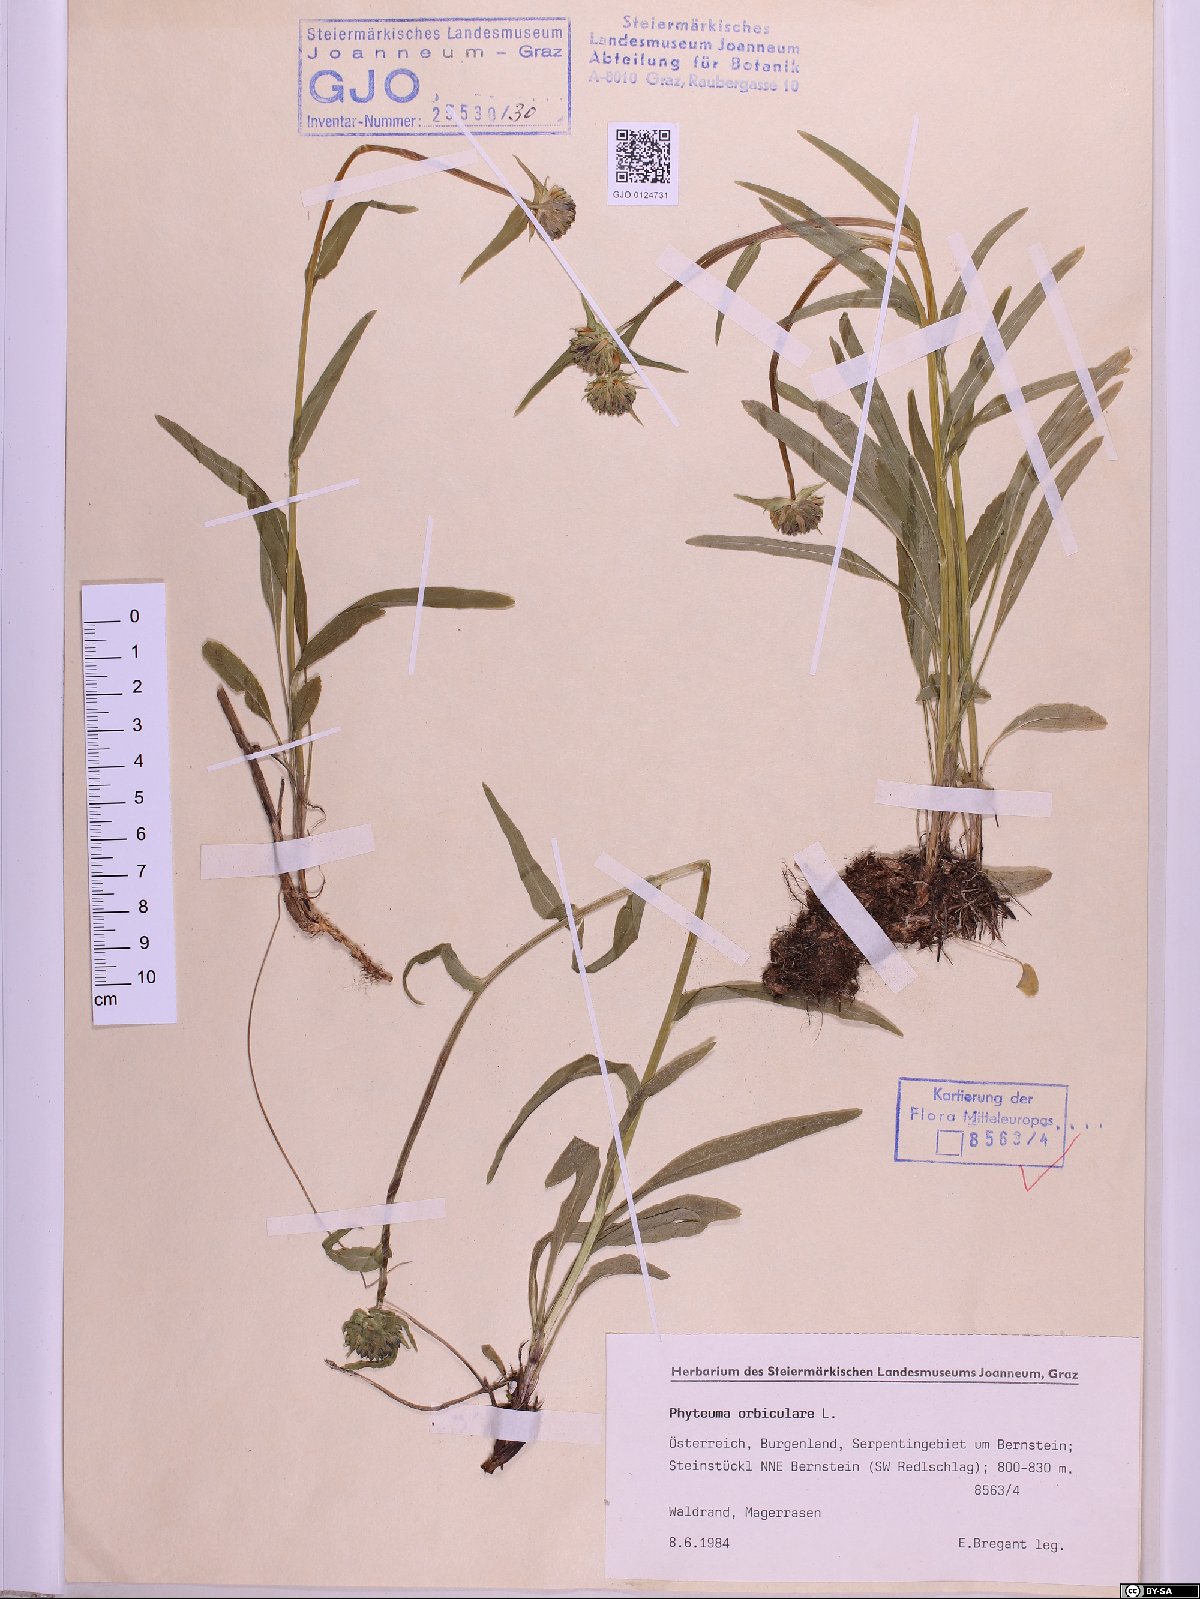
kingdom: Plantae
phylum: Tracheophyta
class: Magnoliopsida
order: Asterales
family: Campanulaceae
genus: Phyteuma
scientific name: Phyteuma orbiculare
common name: Round-headed rampion
